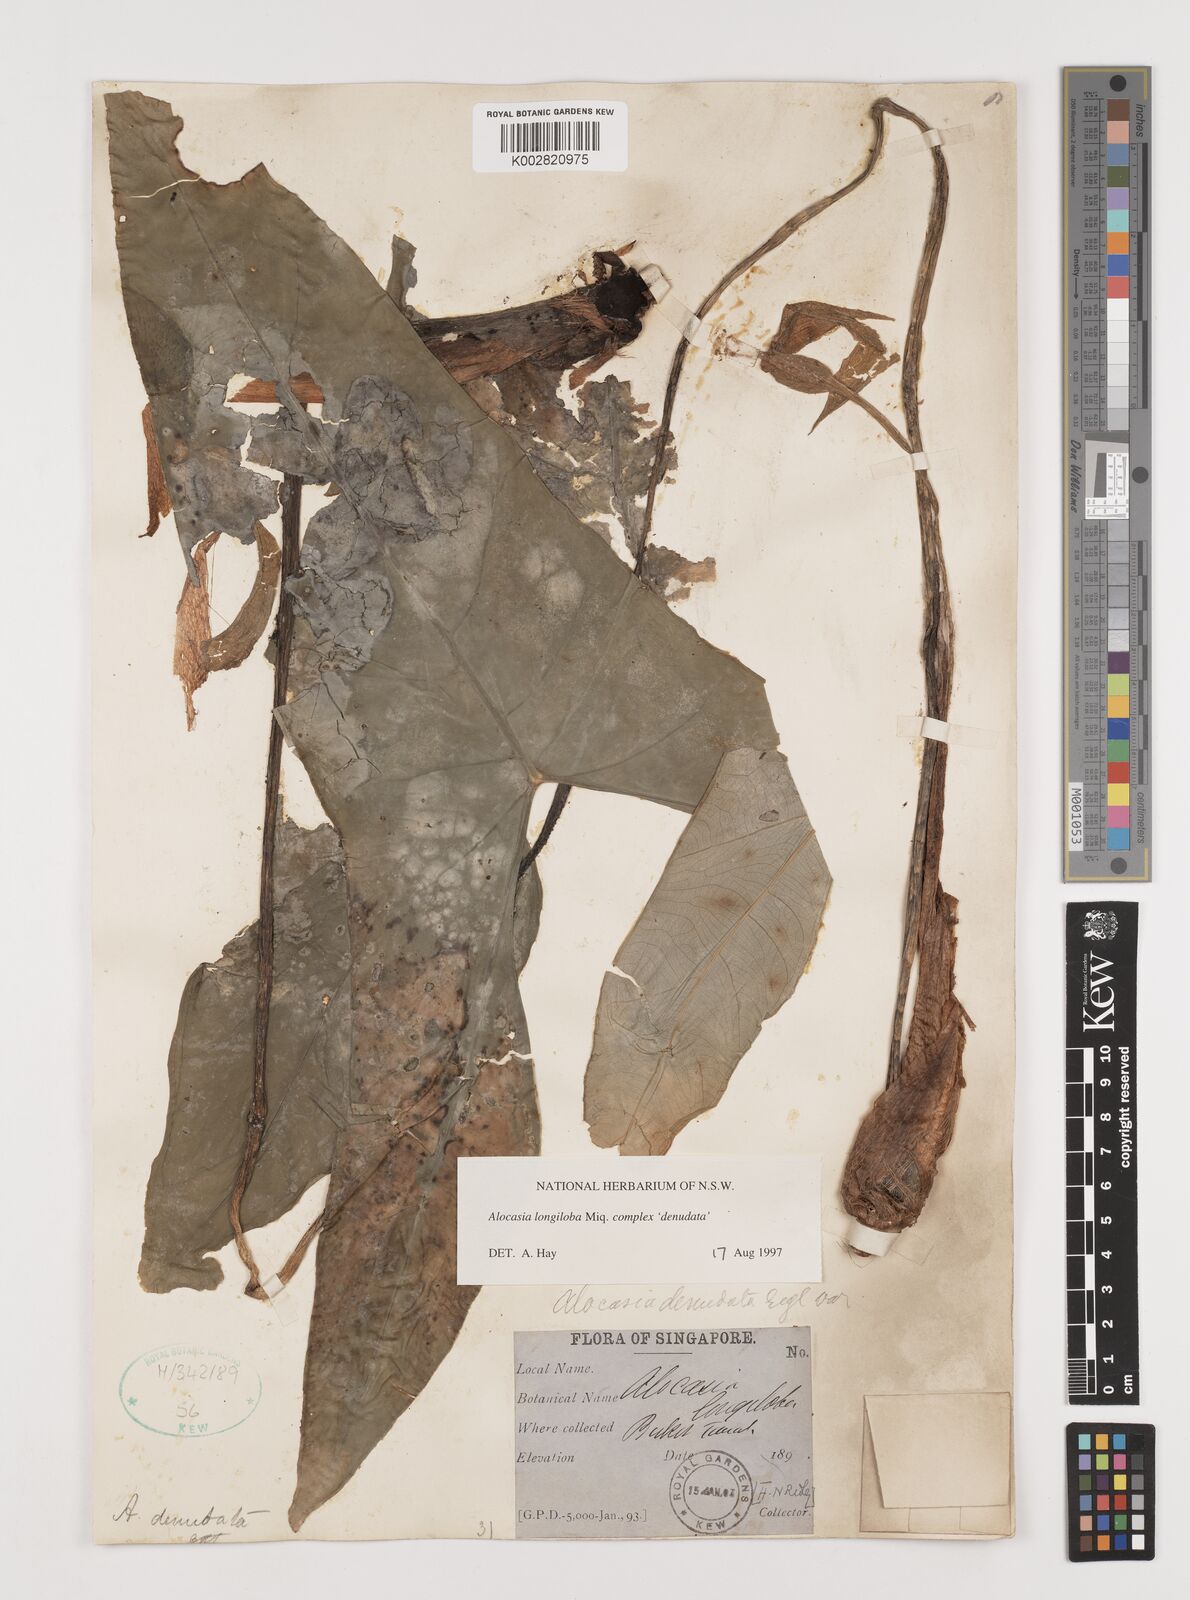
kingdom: Plantae
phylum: Tracheophyta
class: Liliopsida
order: Alismatales
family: Araceae
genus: Alocasia
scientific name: Alocasia longiloba
